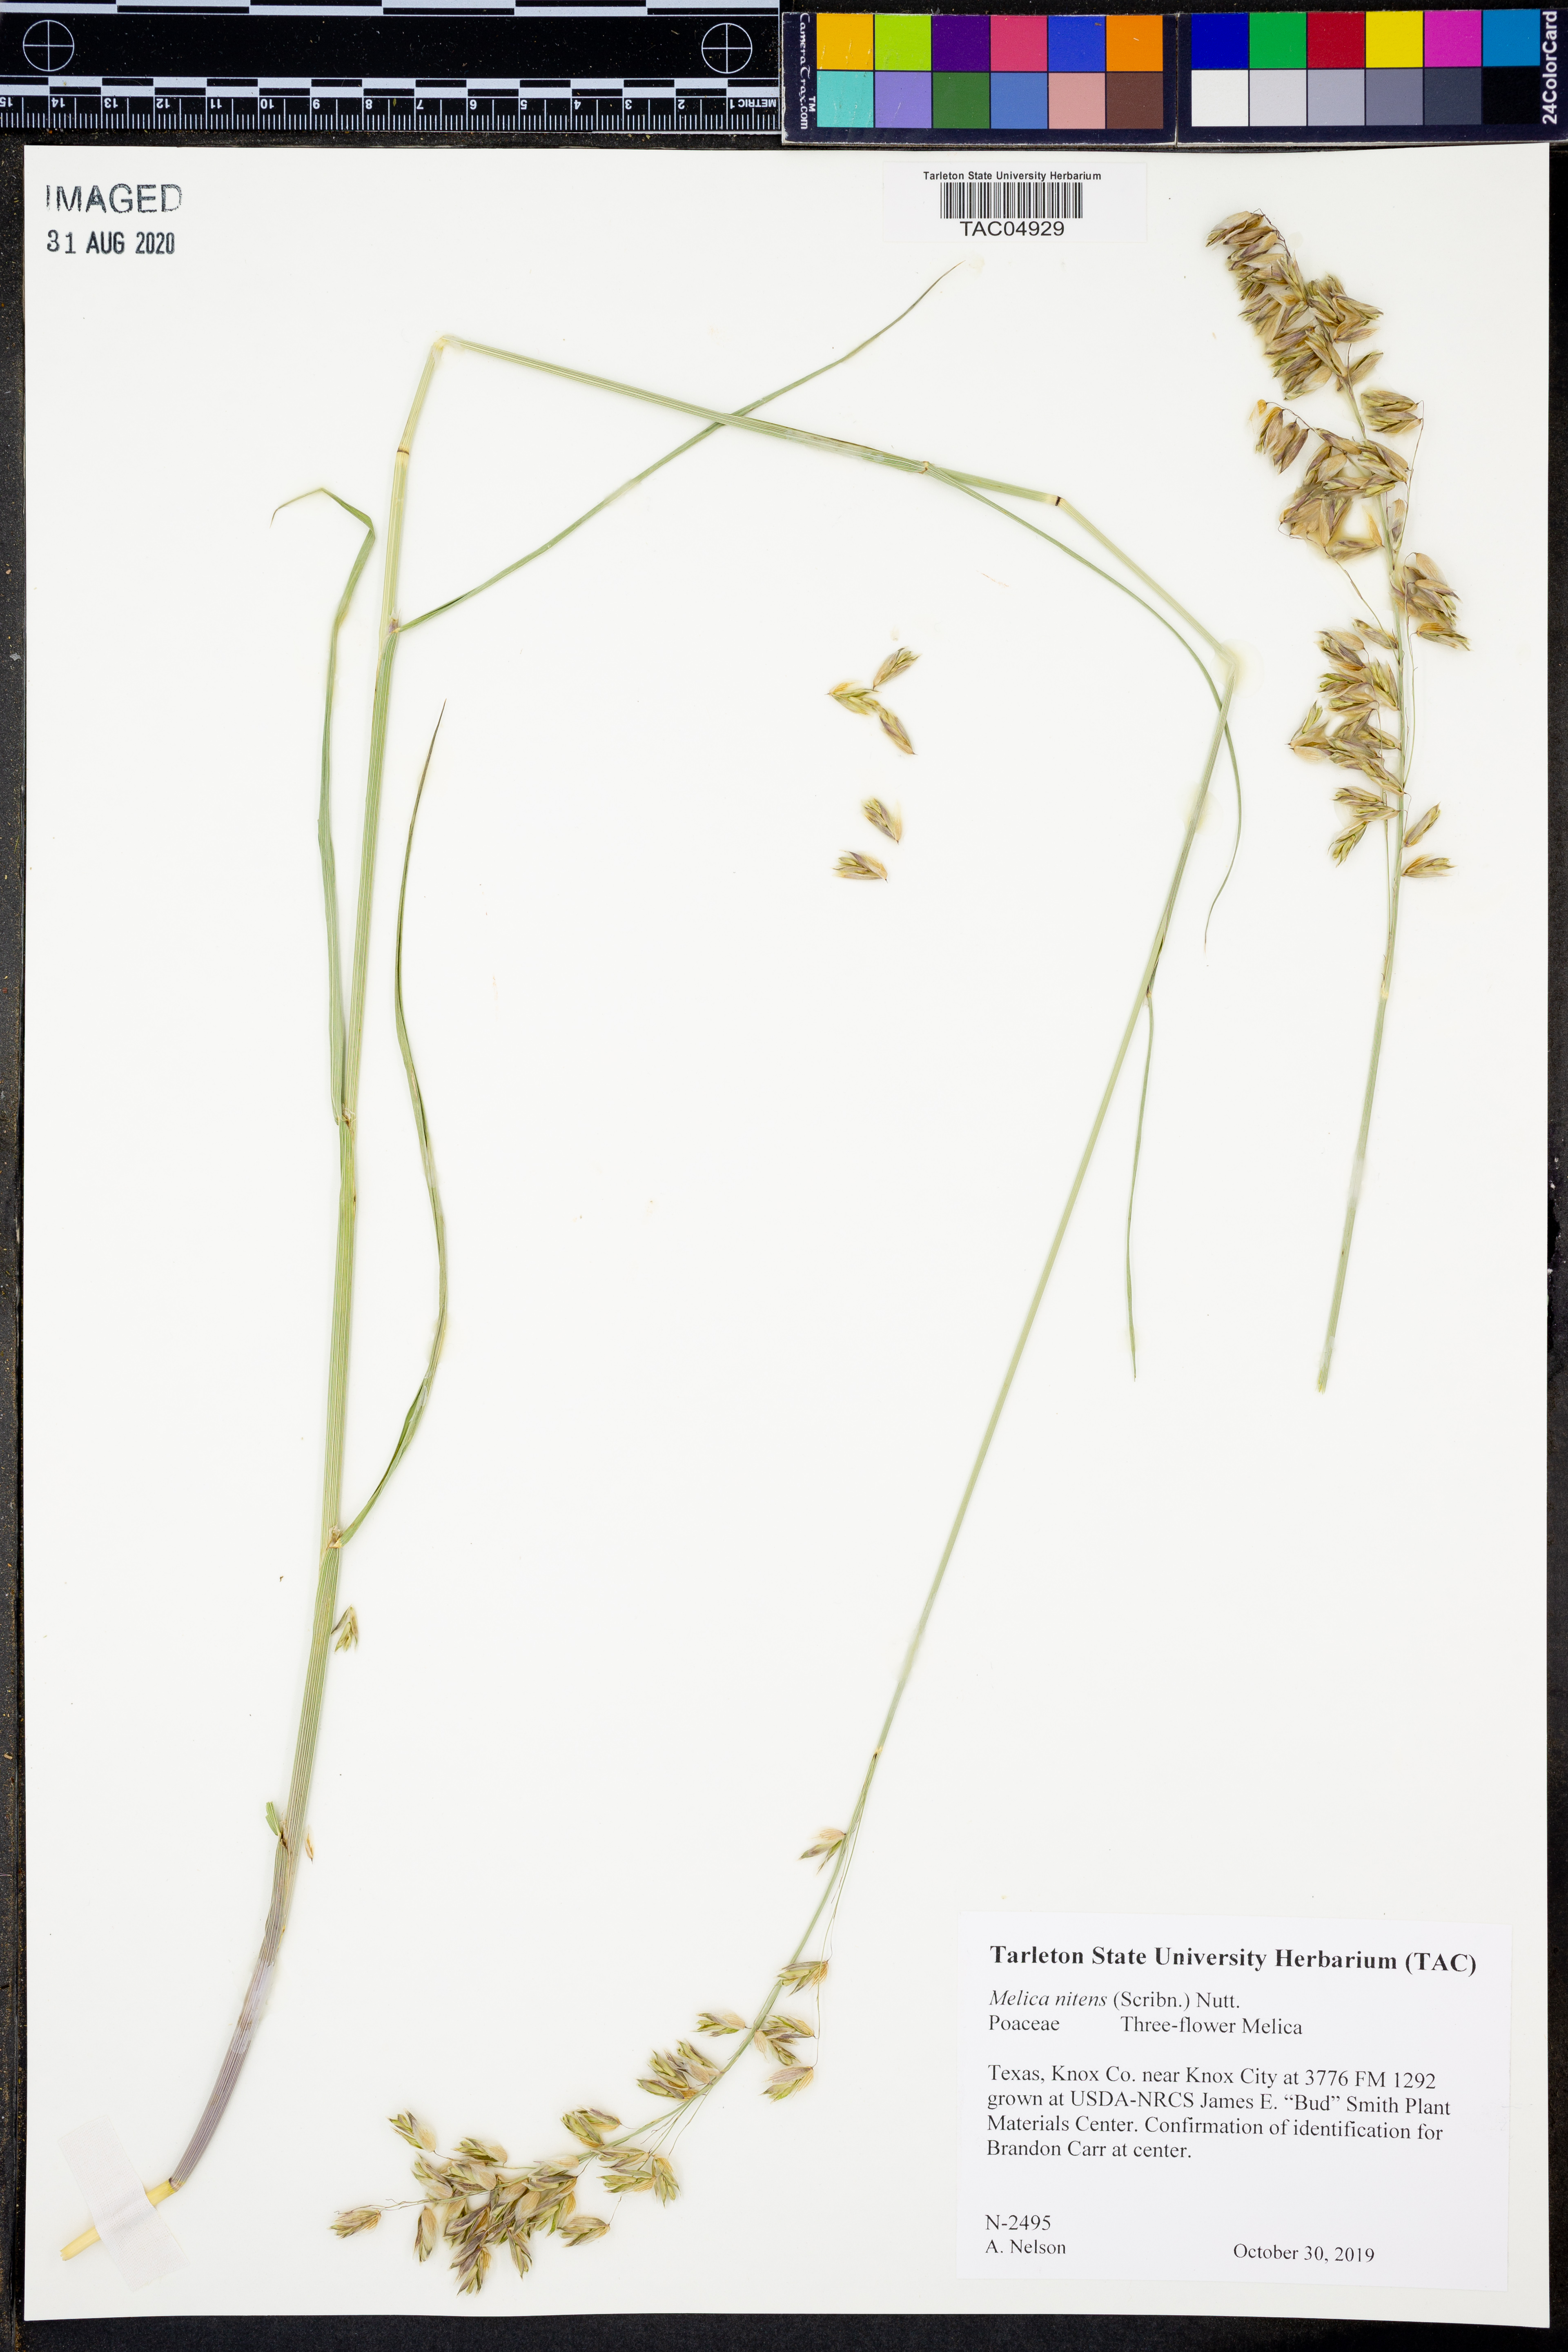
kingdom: Plantae
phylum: Tracheophyta
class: Liliopsida
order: Poales
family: Poaceae
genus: Melica
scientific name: Melica nitens
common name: Three-flower melic
